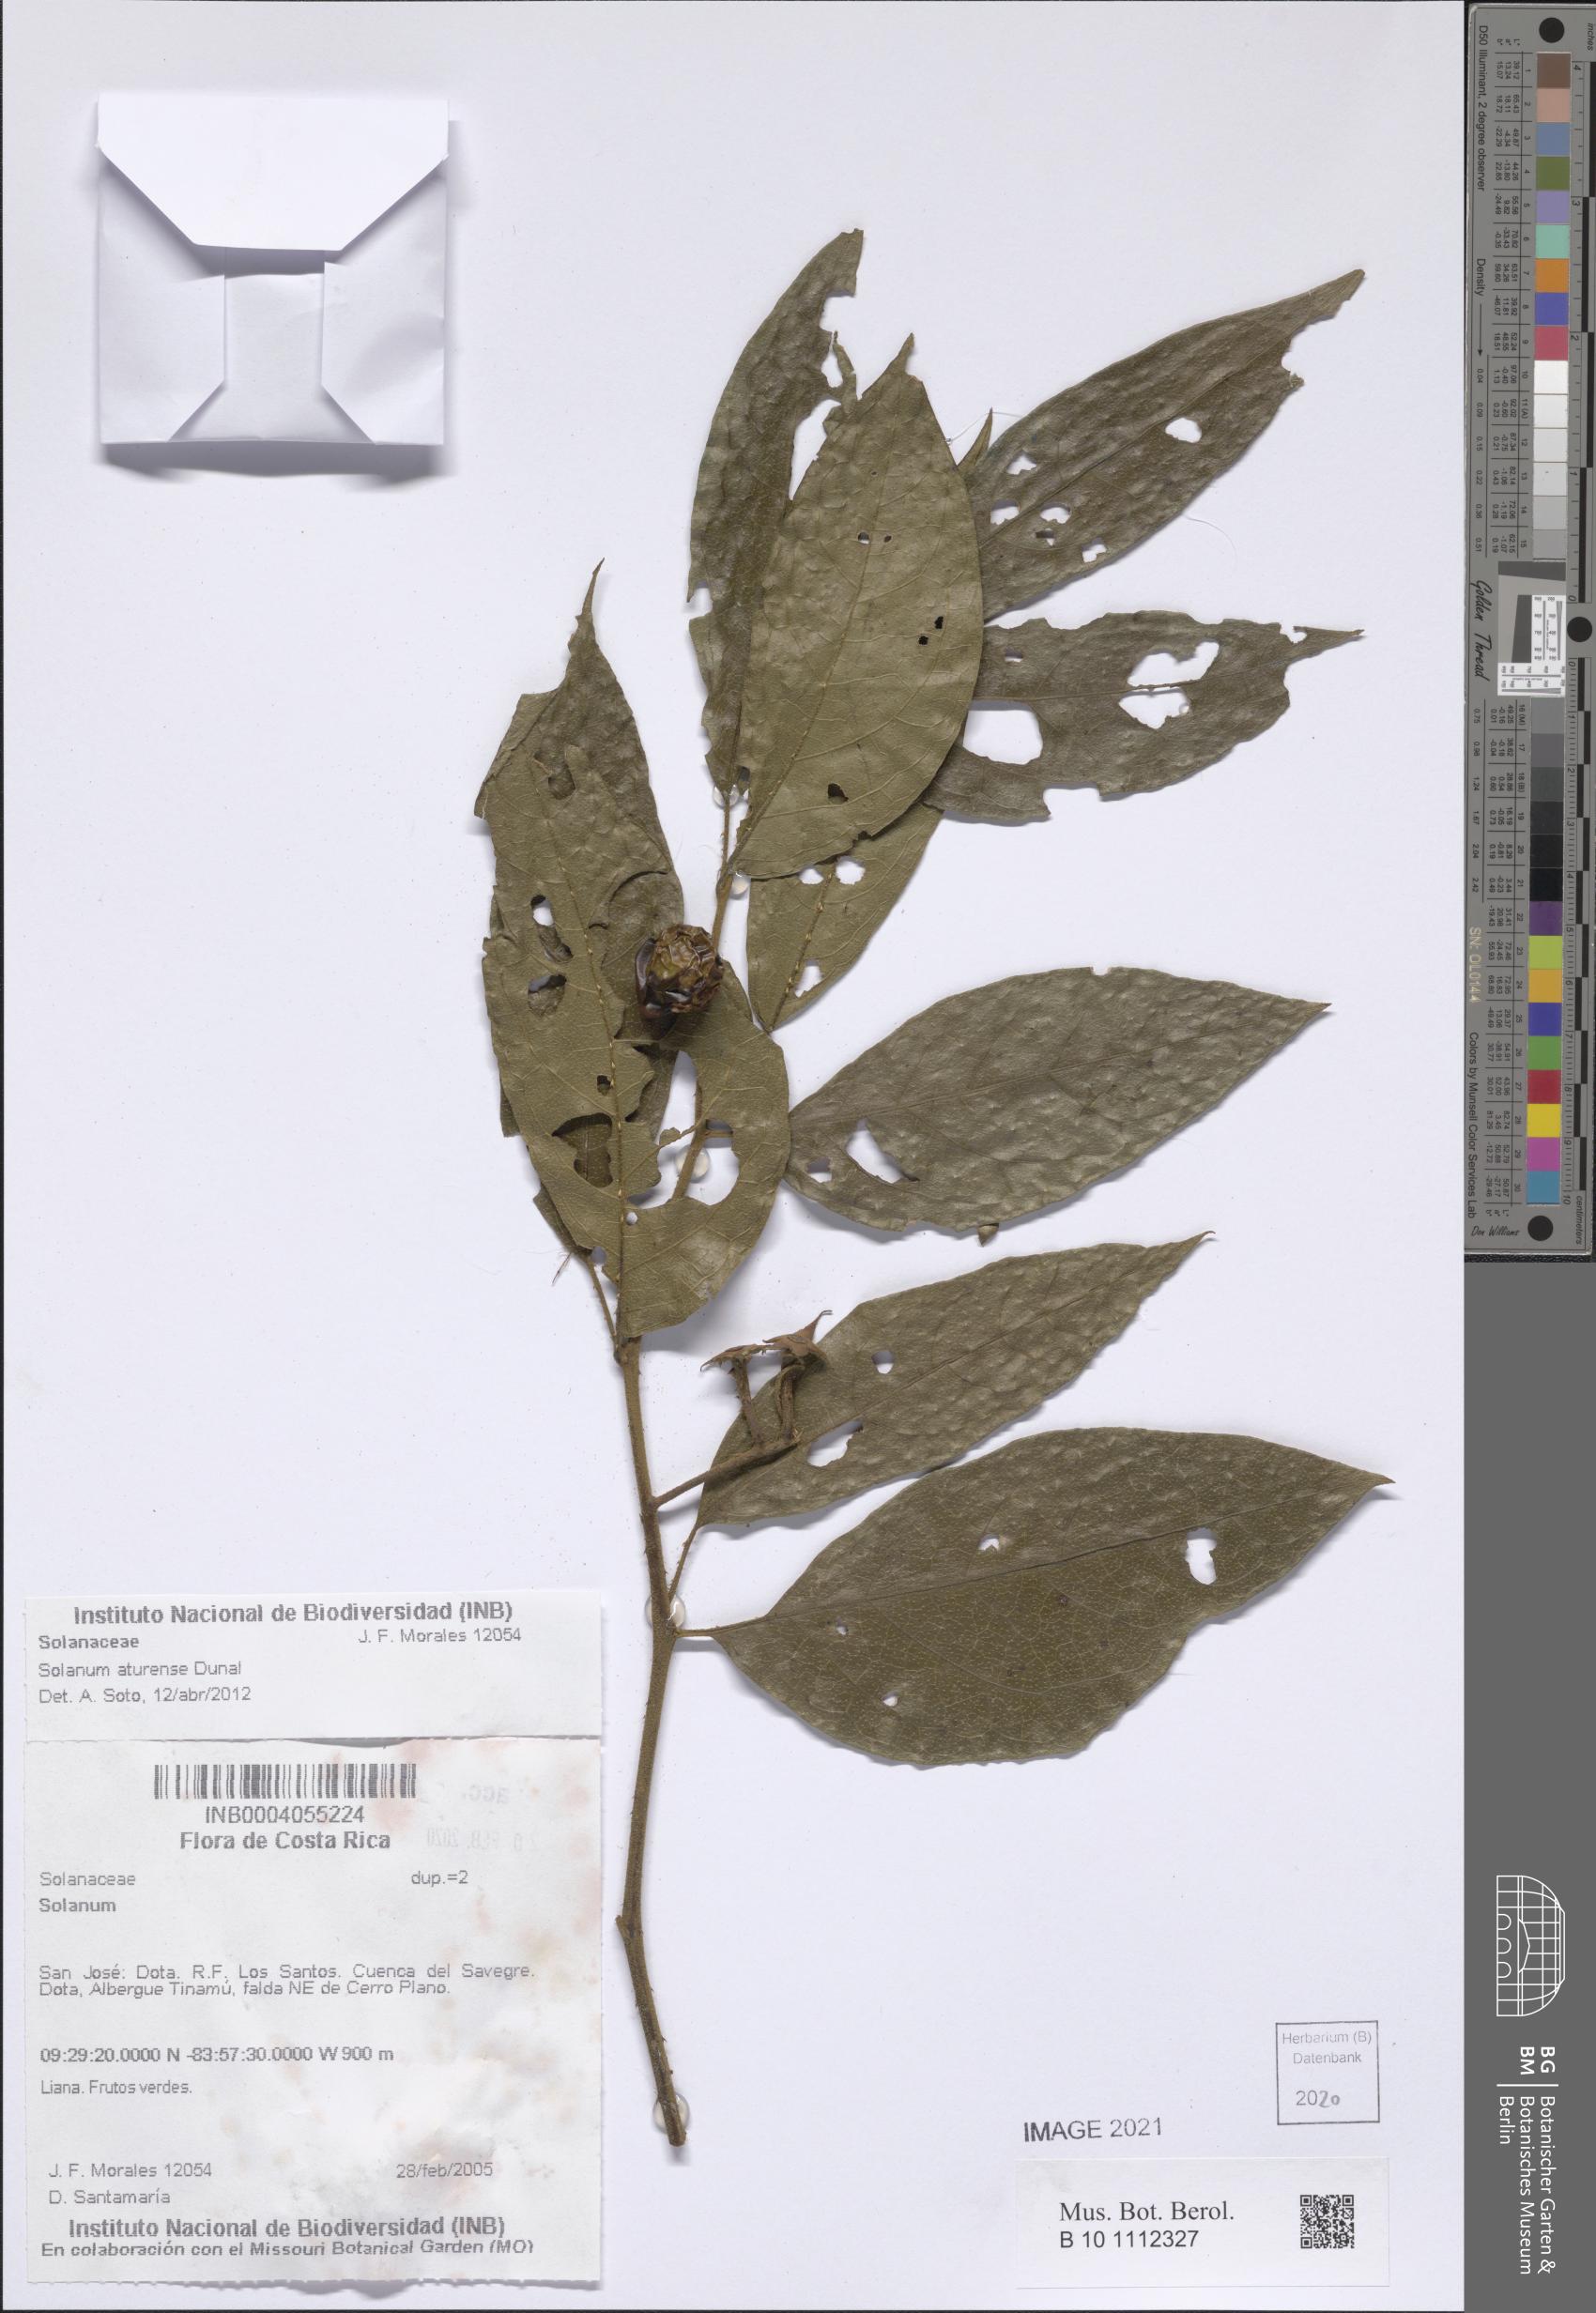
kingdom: Plantae
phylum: Tracheophyta
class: Magnoliopsida
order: Solanales
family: Solanaceae
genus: Solanum
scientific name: Solanum aturense
